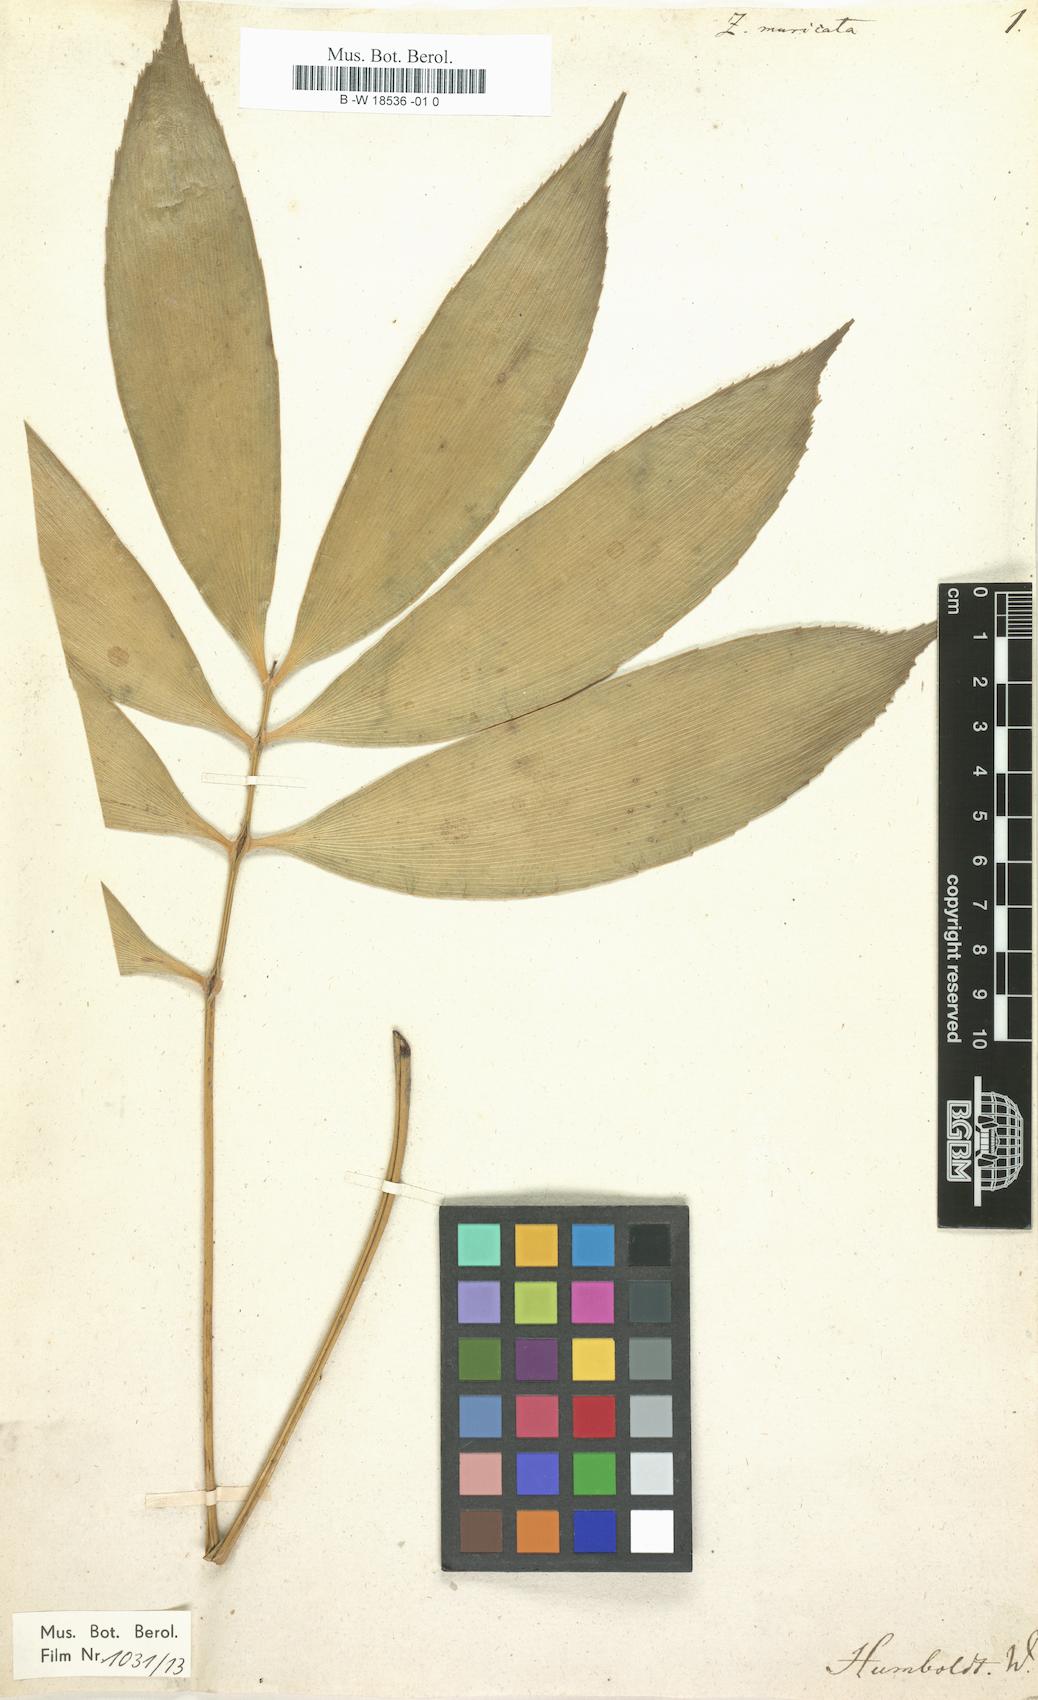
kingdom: Plantae
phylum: Tracheophyta
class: Cycadopsida
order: Cycadales
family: Zamiaceae
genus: Zamia
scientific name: Zamia muricata
